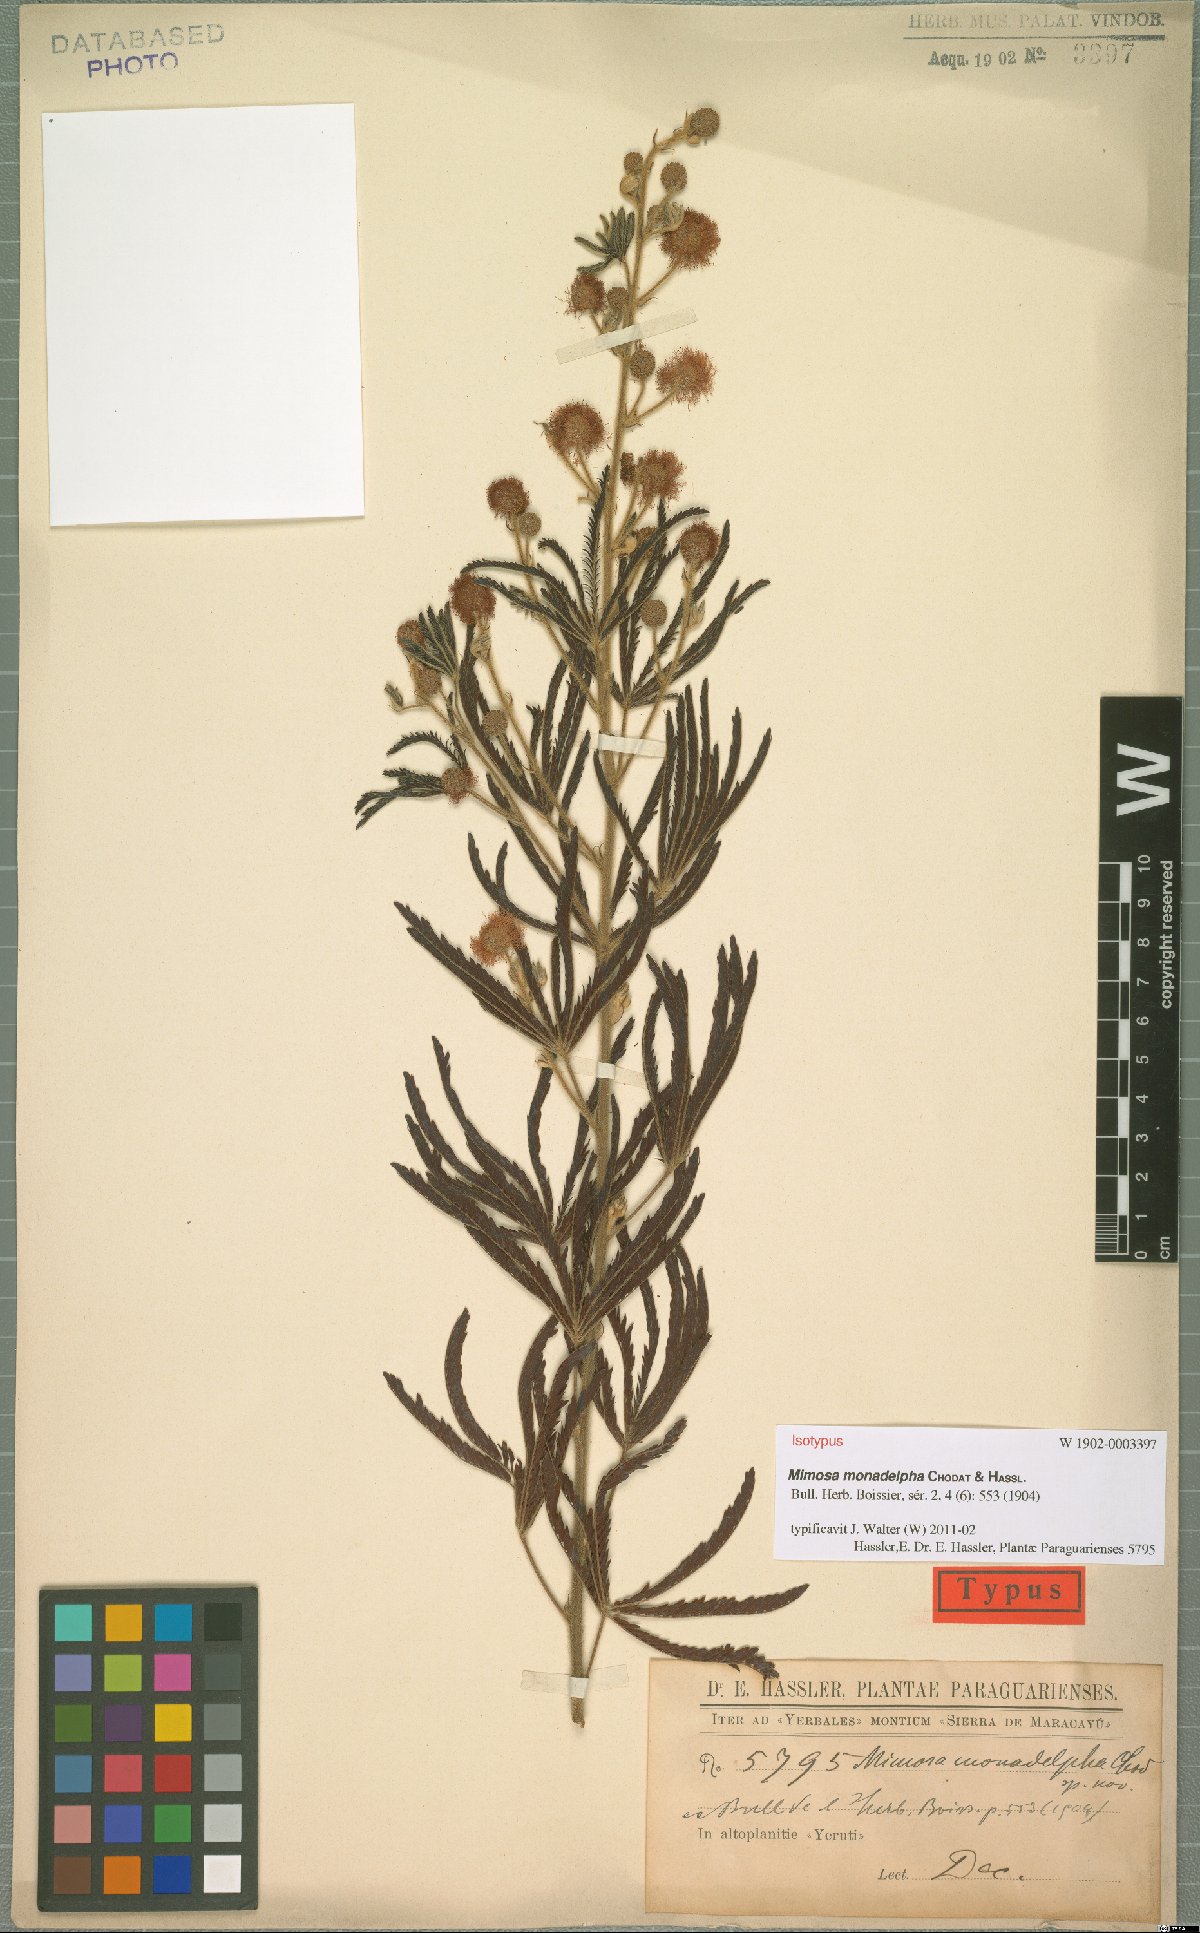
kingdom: Plantae
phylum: Tracheophyta
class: Magnoliopsida
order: Fabales
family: Fabaceae
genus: Mimosa
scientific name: Mimosa amambayensis
